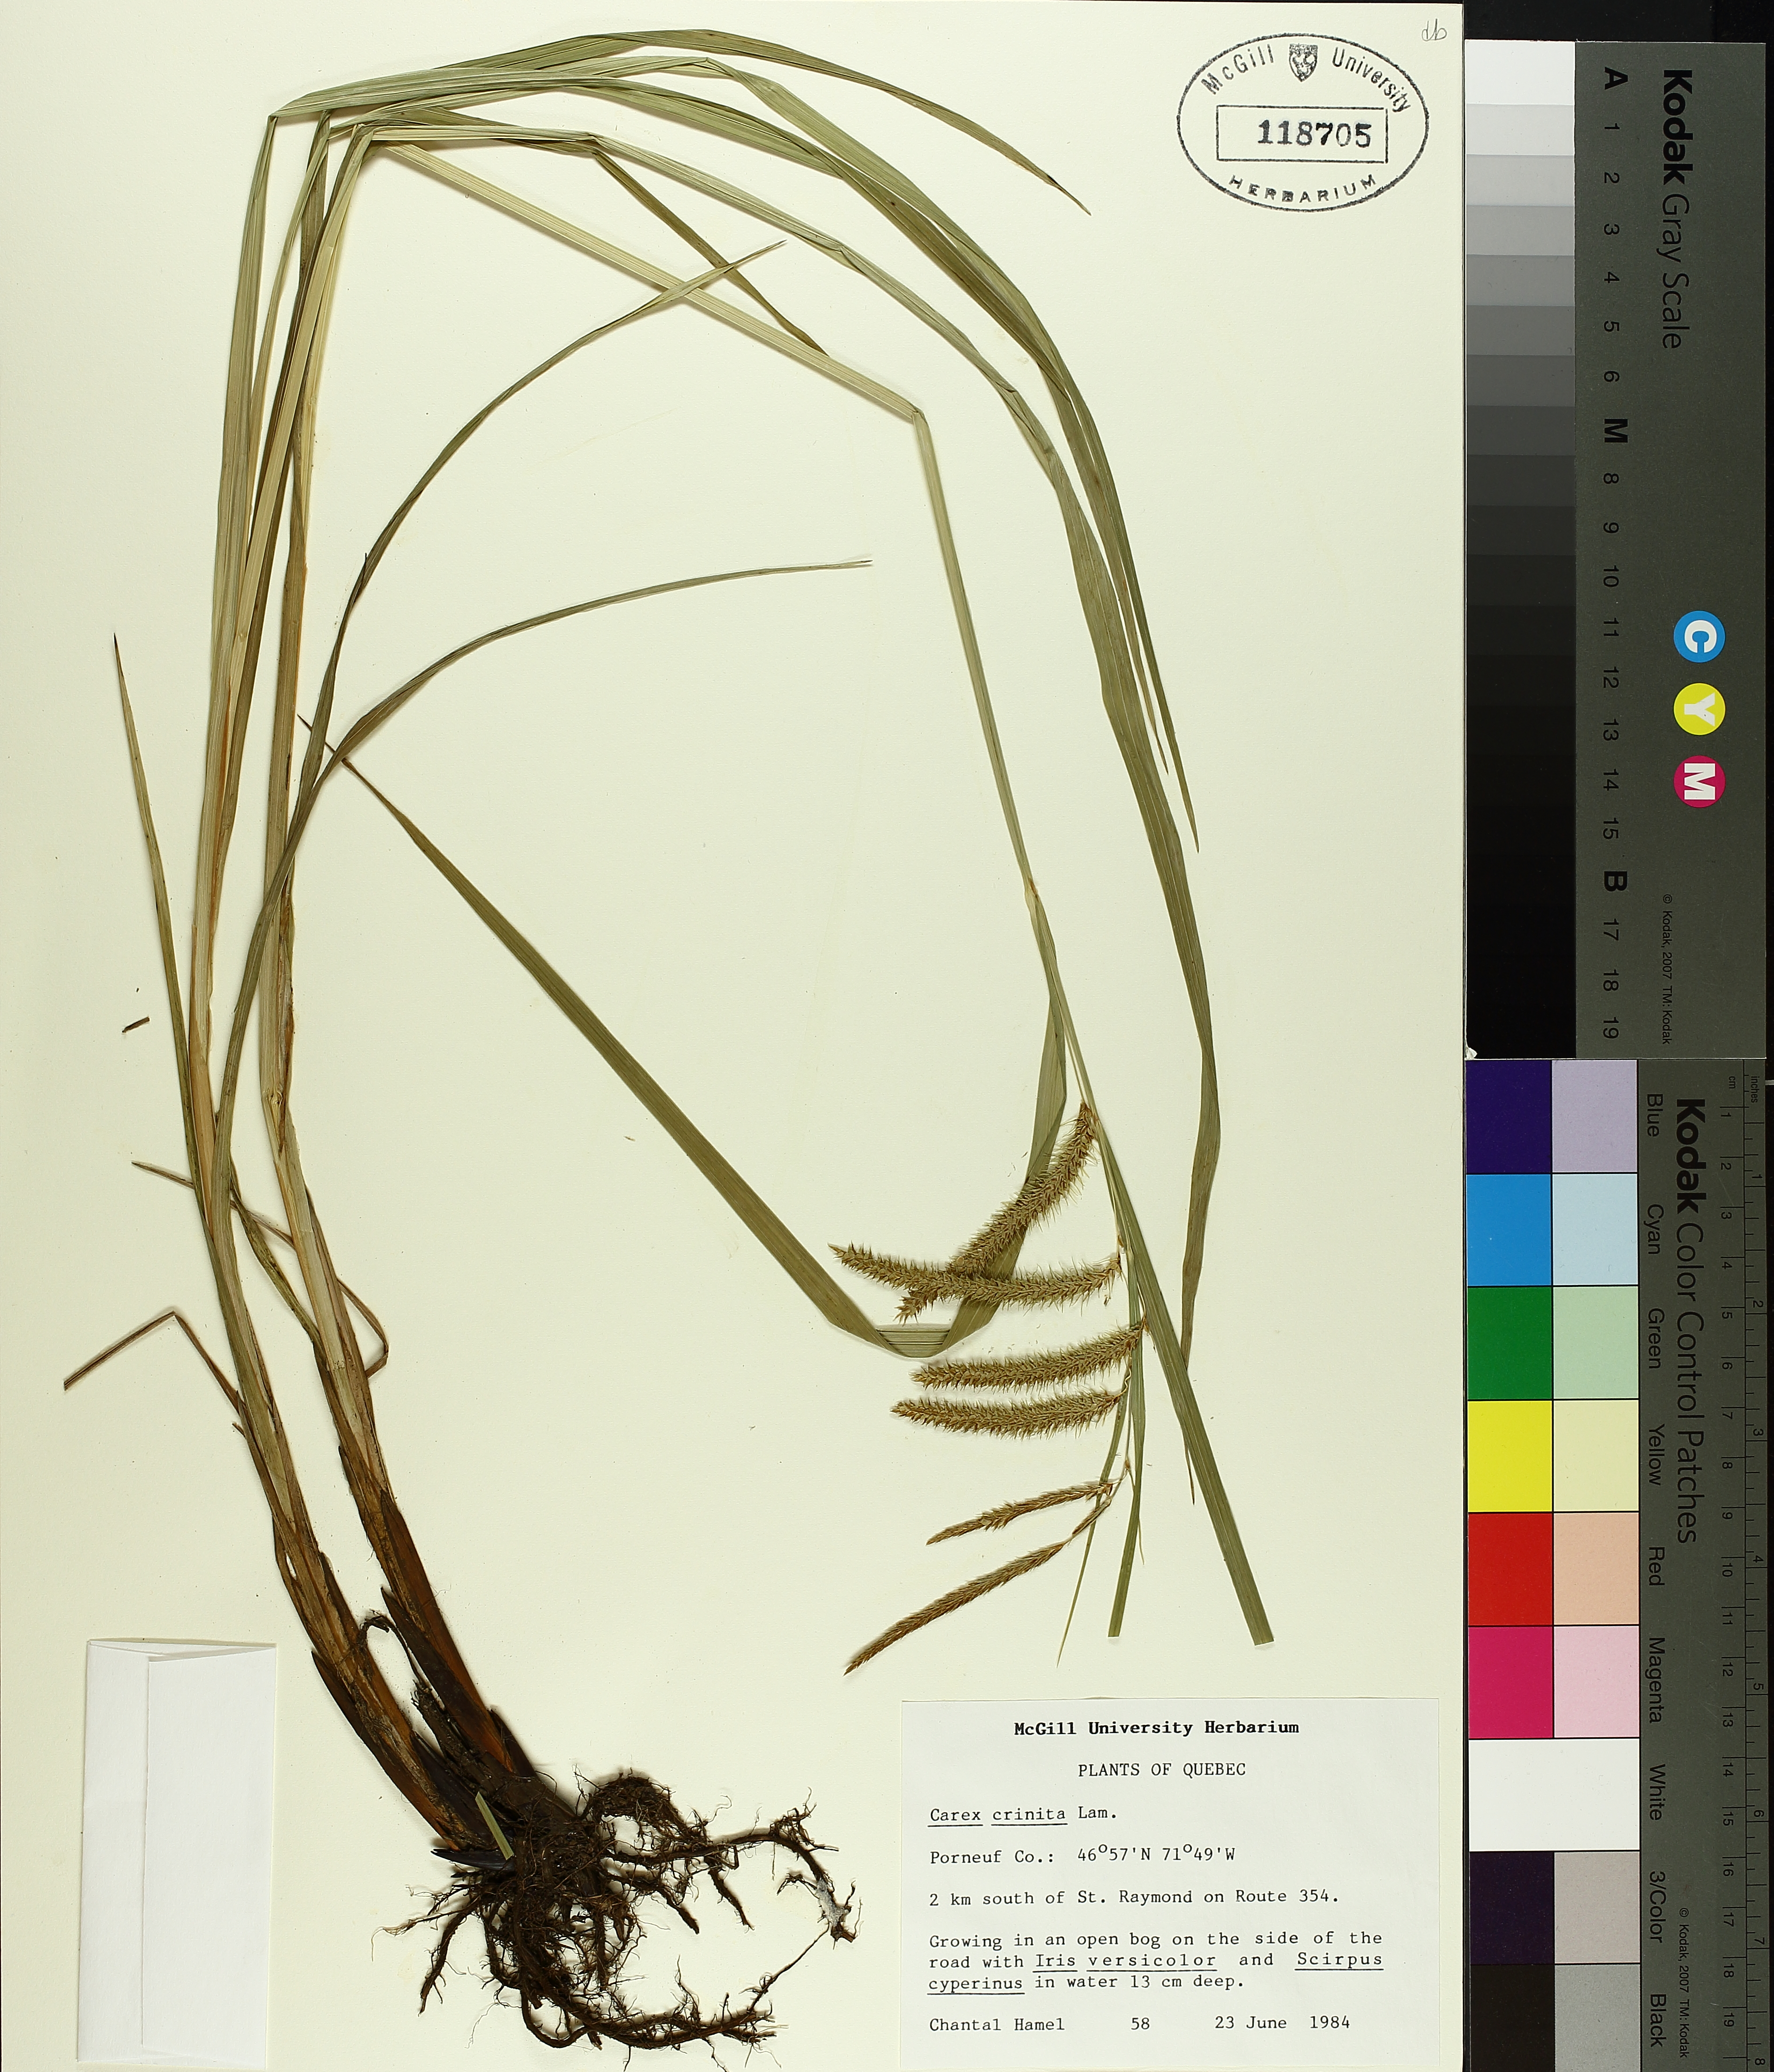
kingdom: Plantae
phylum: Tracheophyta
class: Liliopsida
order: Poales
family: Cyperaceae
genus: Carex
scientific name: Carex crinita
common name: Fringed sedge
